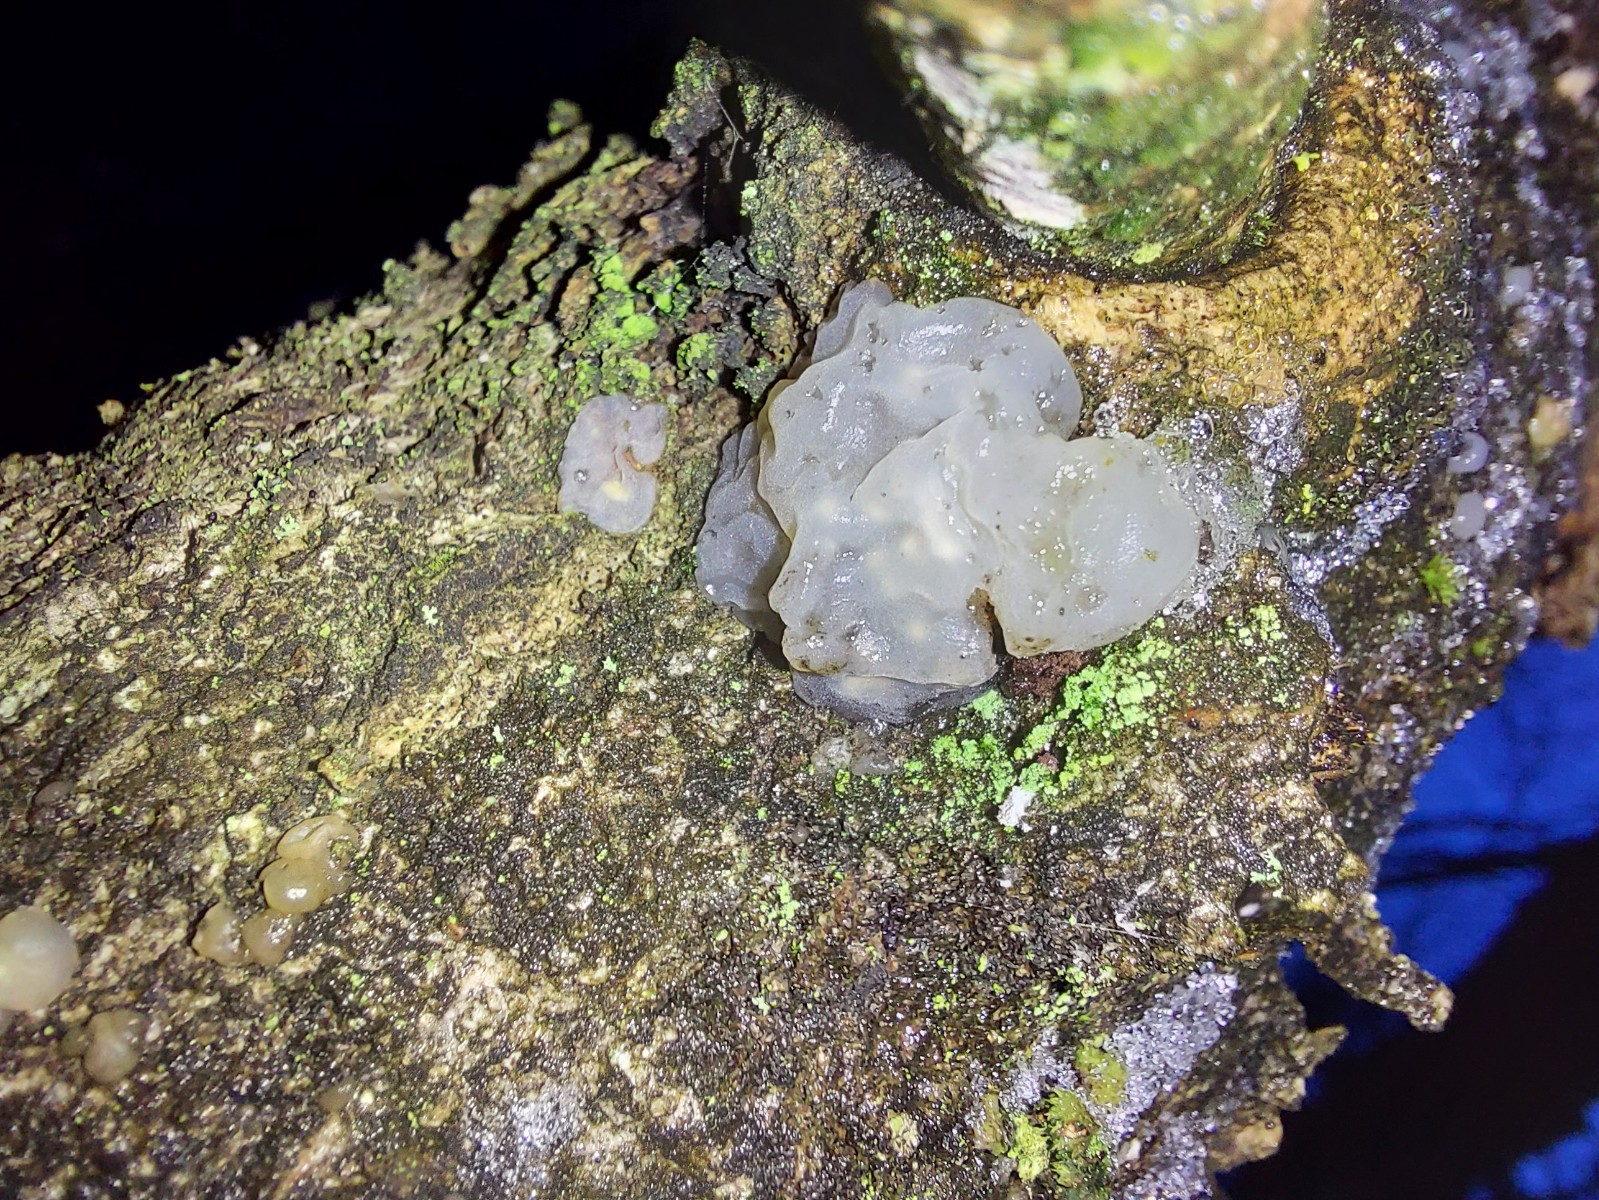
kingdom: Fungi
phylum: Basidiomycota
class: Agaricomycetes
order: Auriculariales
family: Hyaloriaceae
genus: Myxarium
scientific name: Myxarium nucleatum
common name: klar bævretop
